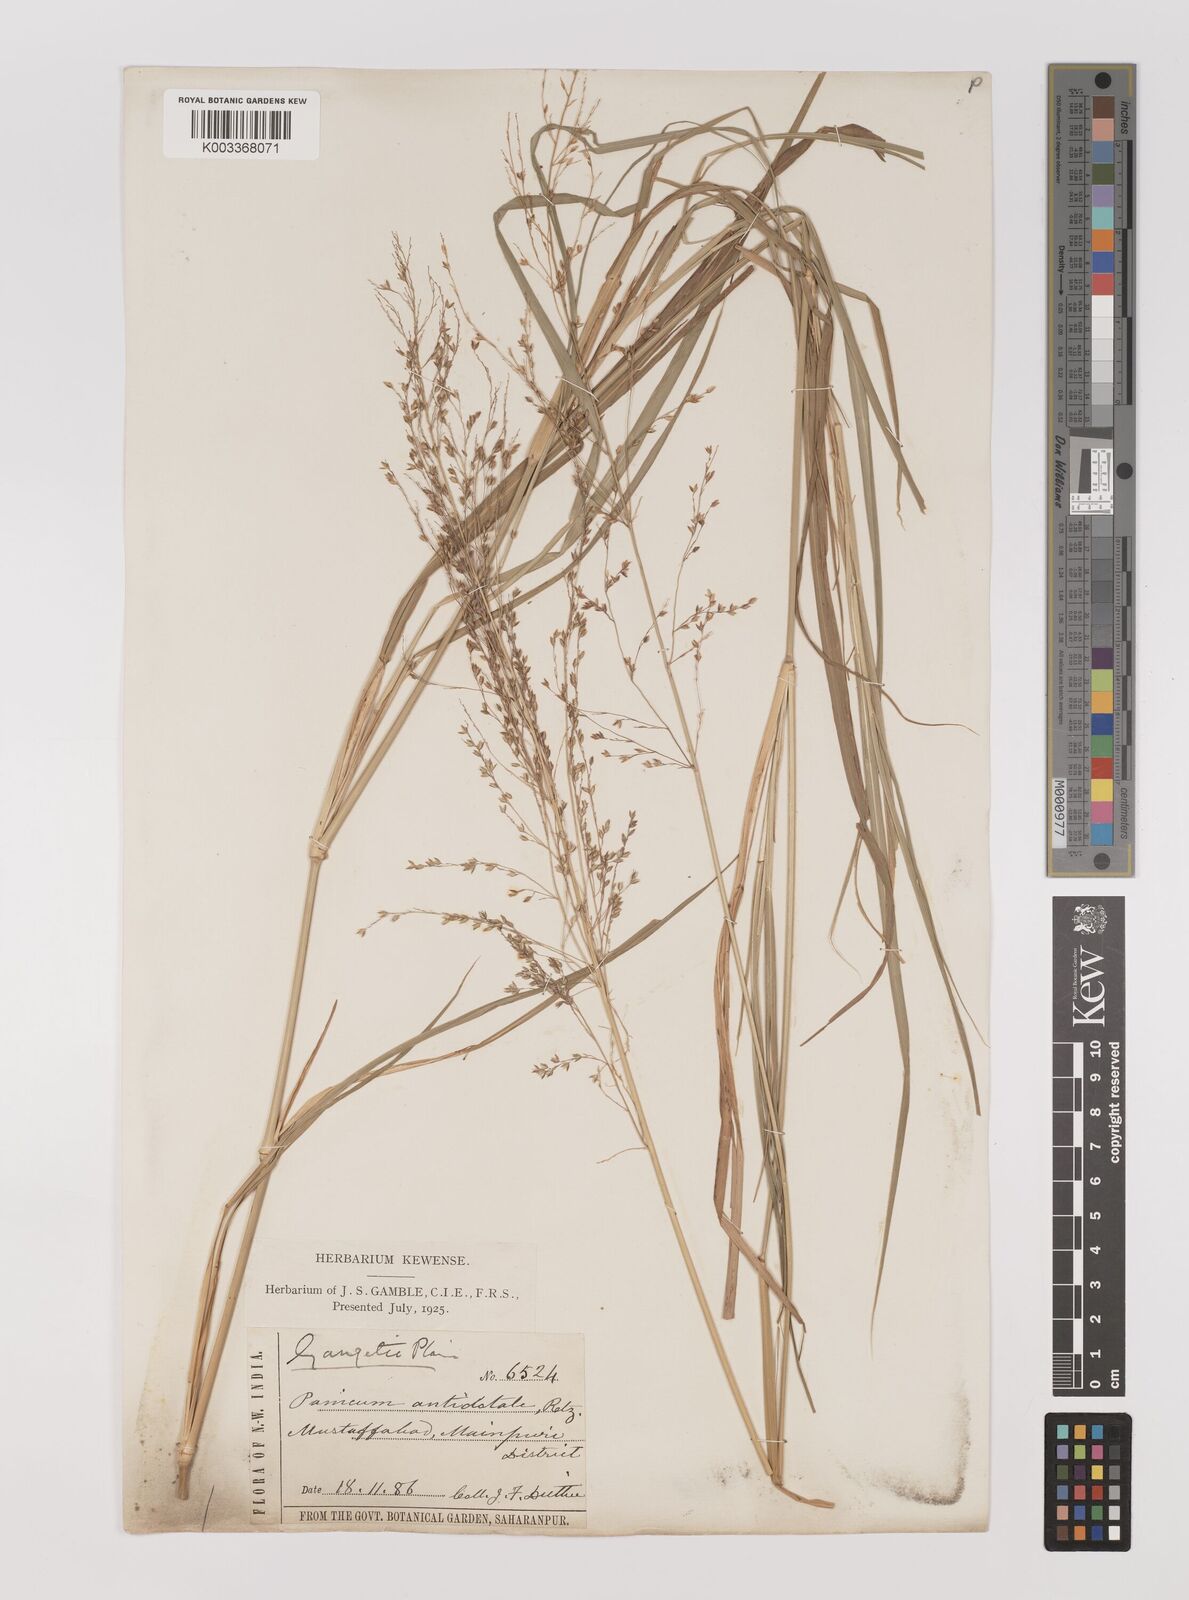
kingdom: Plantae
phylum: Tracheophyta
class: Liliopsida
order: Poales
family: Poaceae
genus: Panicum
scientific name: Panicum antidotale
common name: Blue panicum
